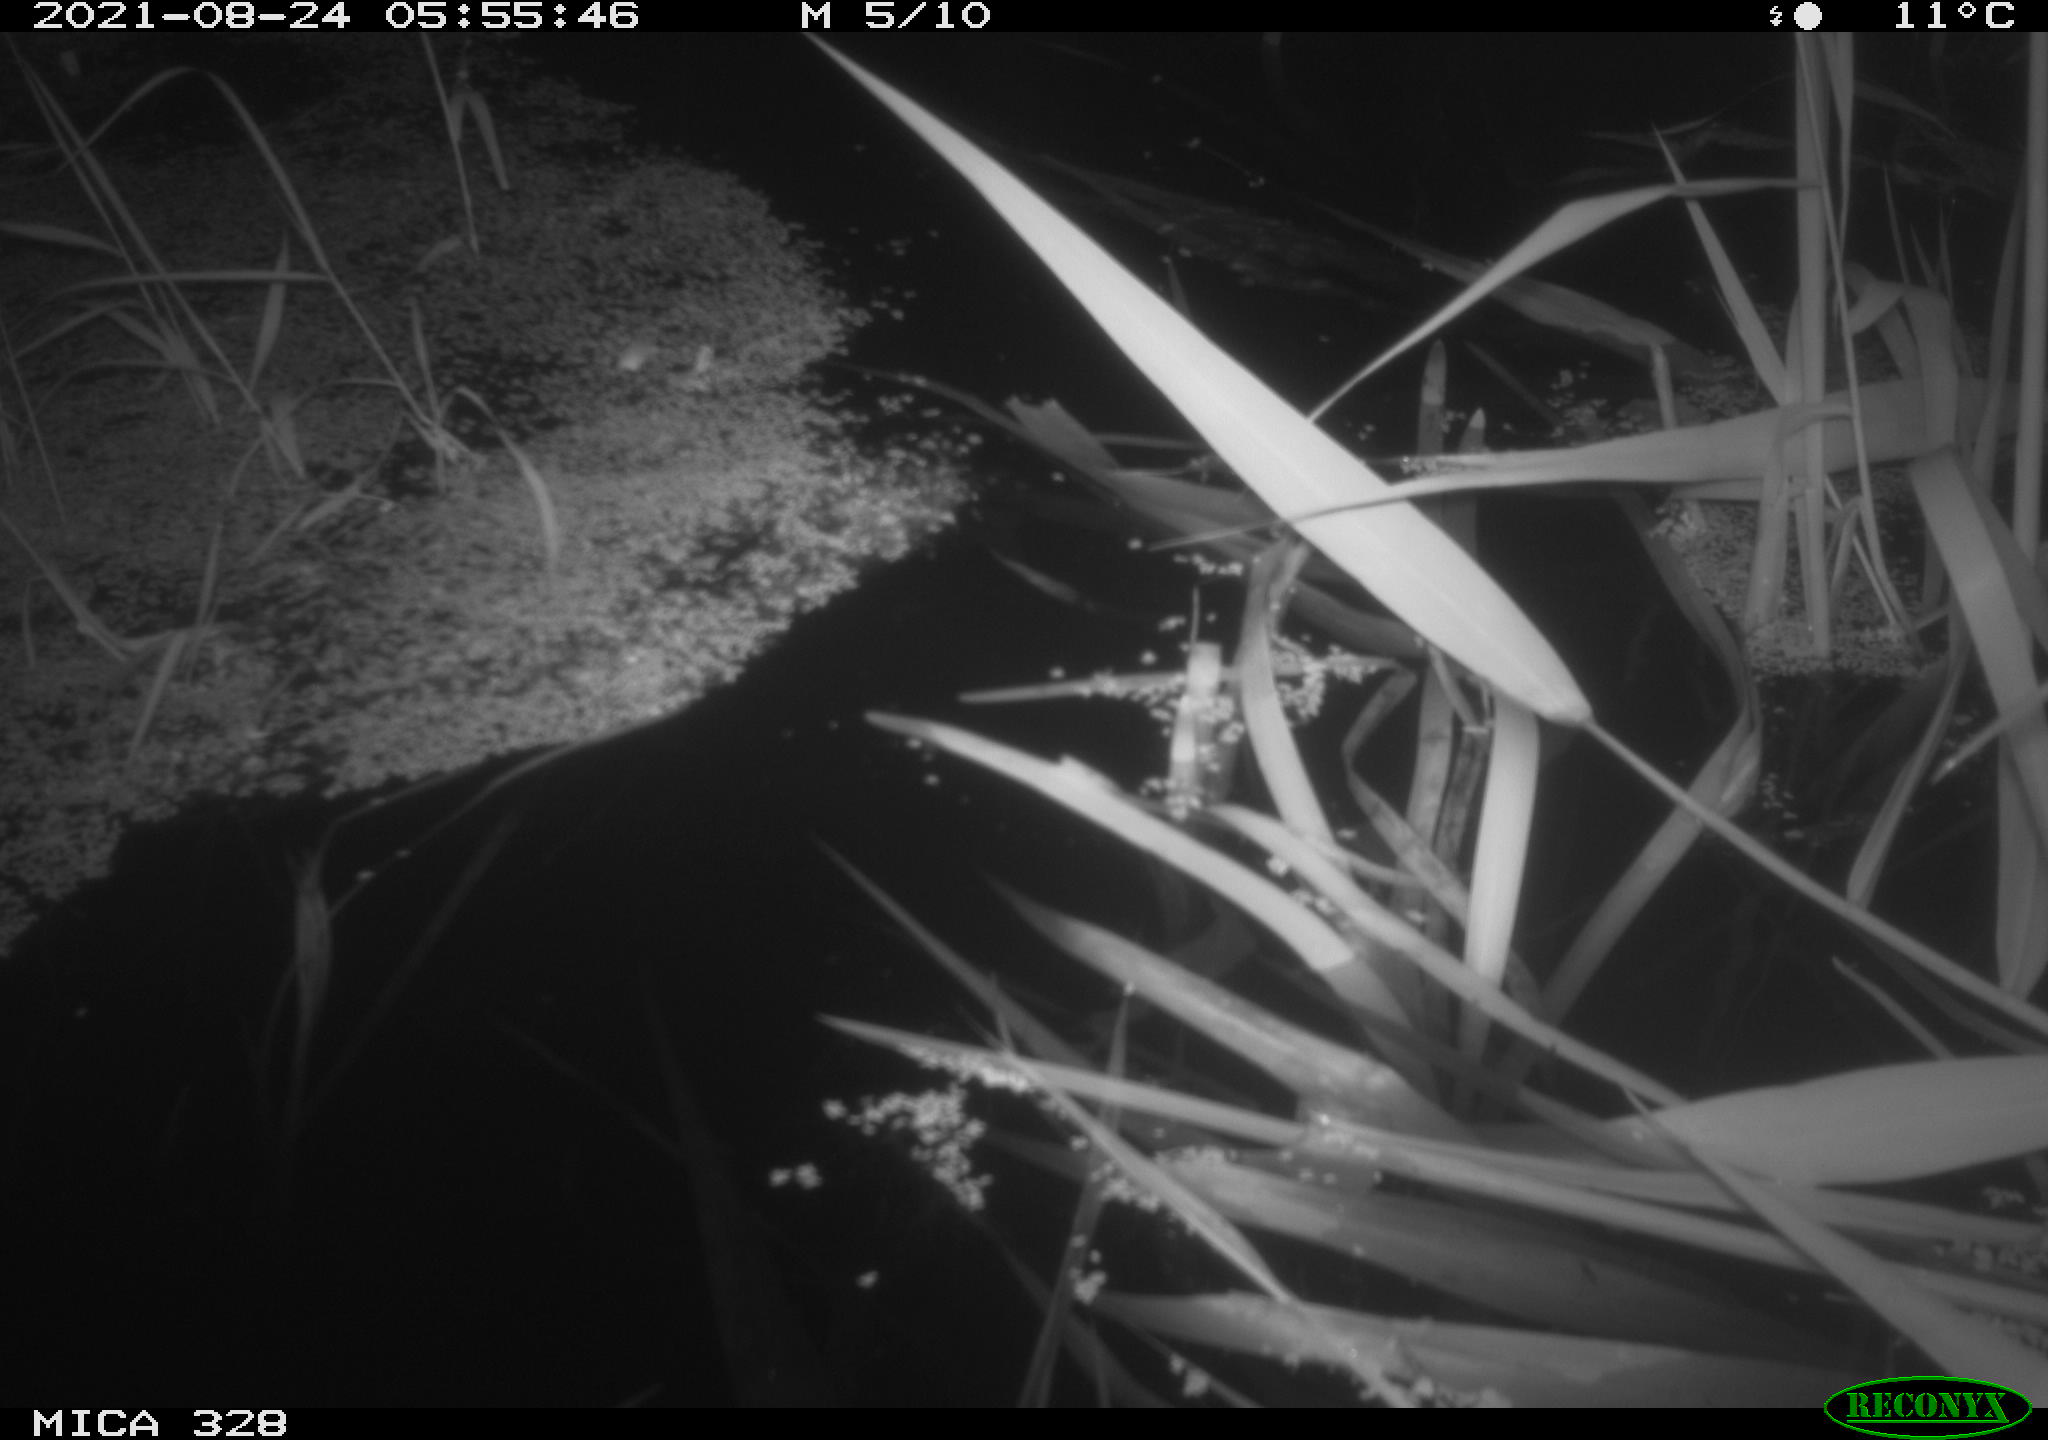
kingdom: Animalia
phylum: Chordata
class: Mammalia
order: Rodentia
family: Cricetidae
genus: Ondatra
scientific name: Ondatra zibethicus
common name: Muskrat
